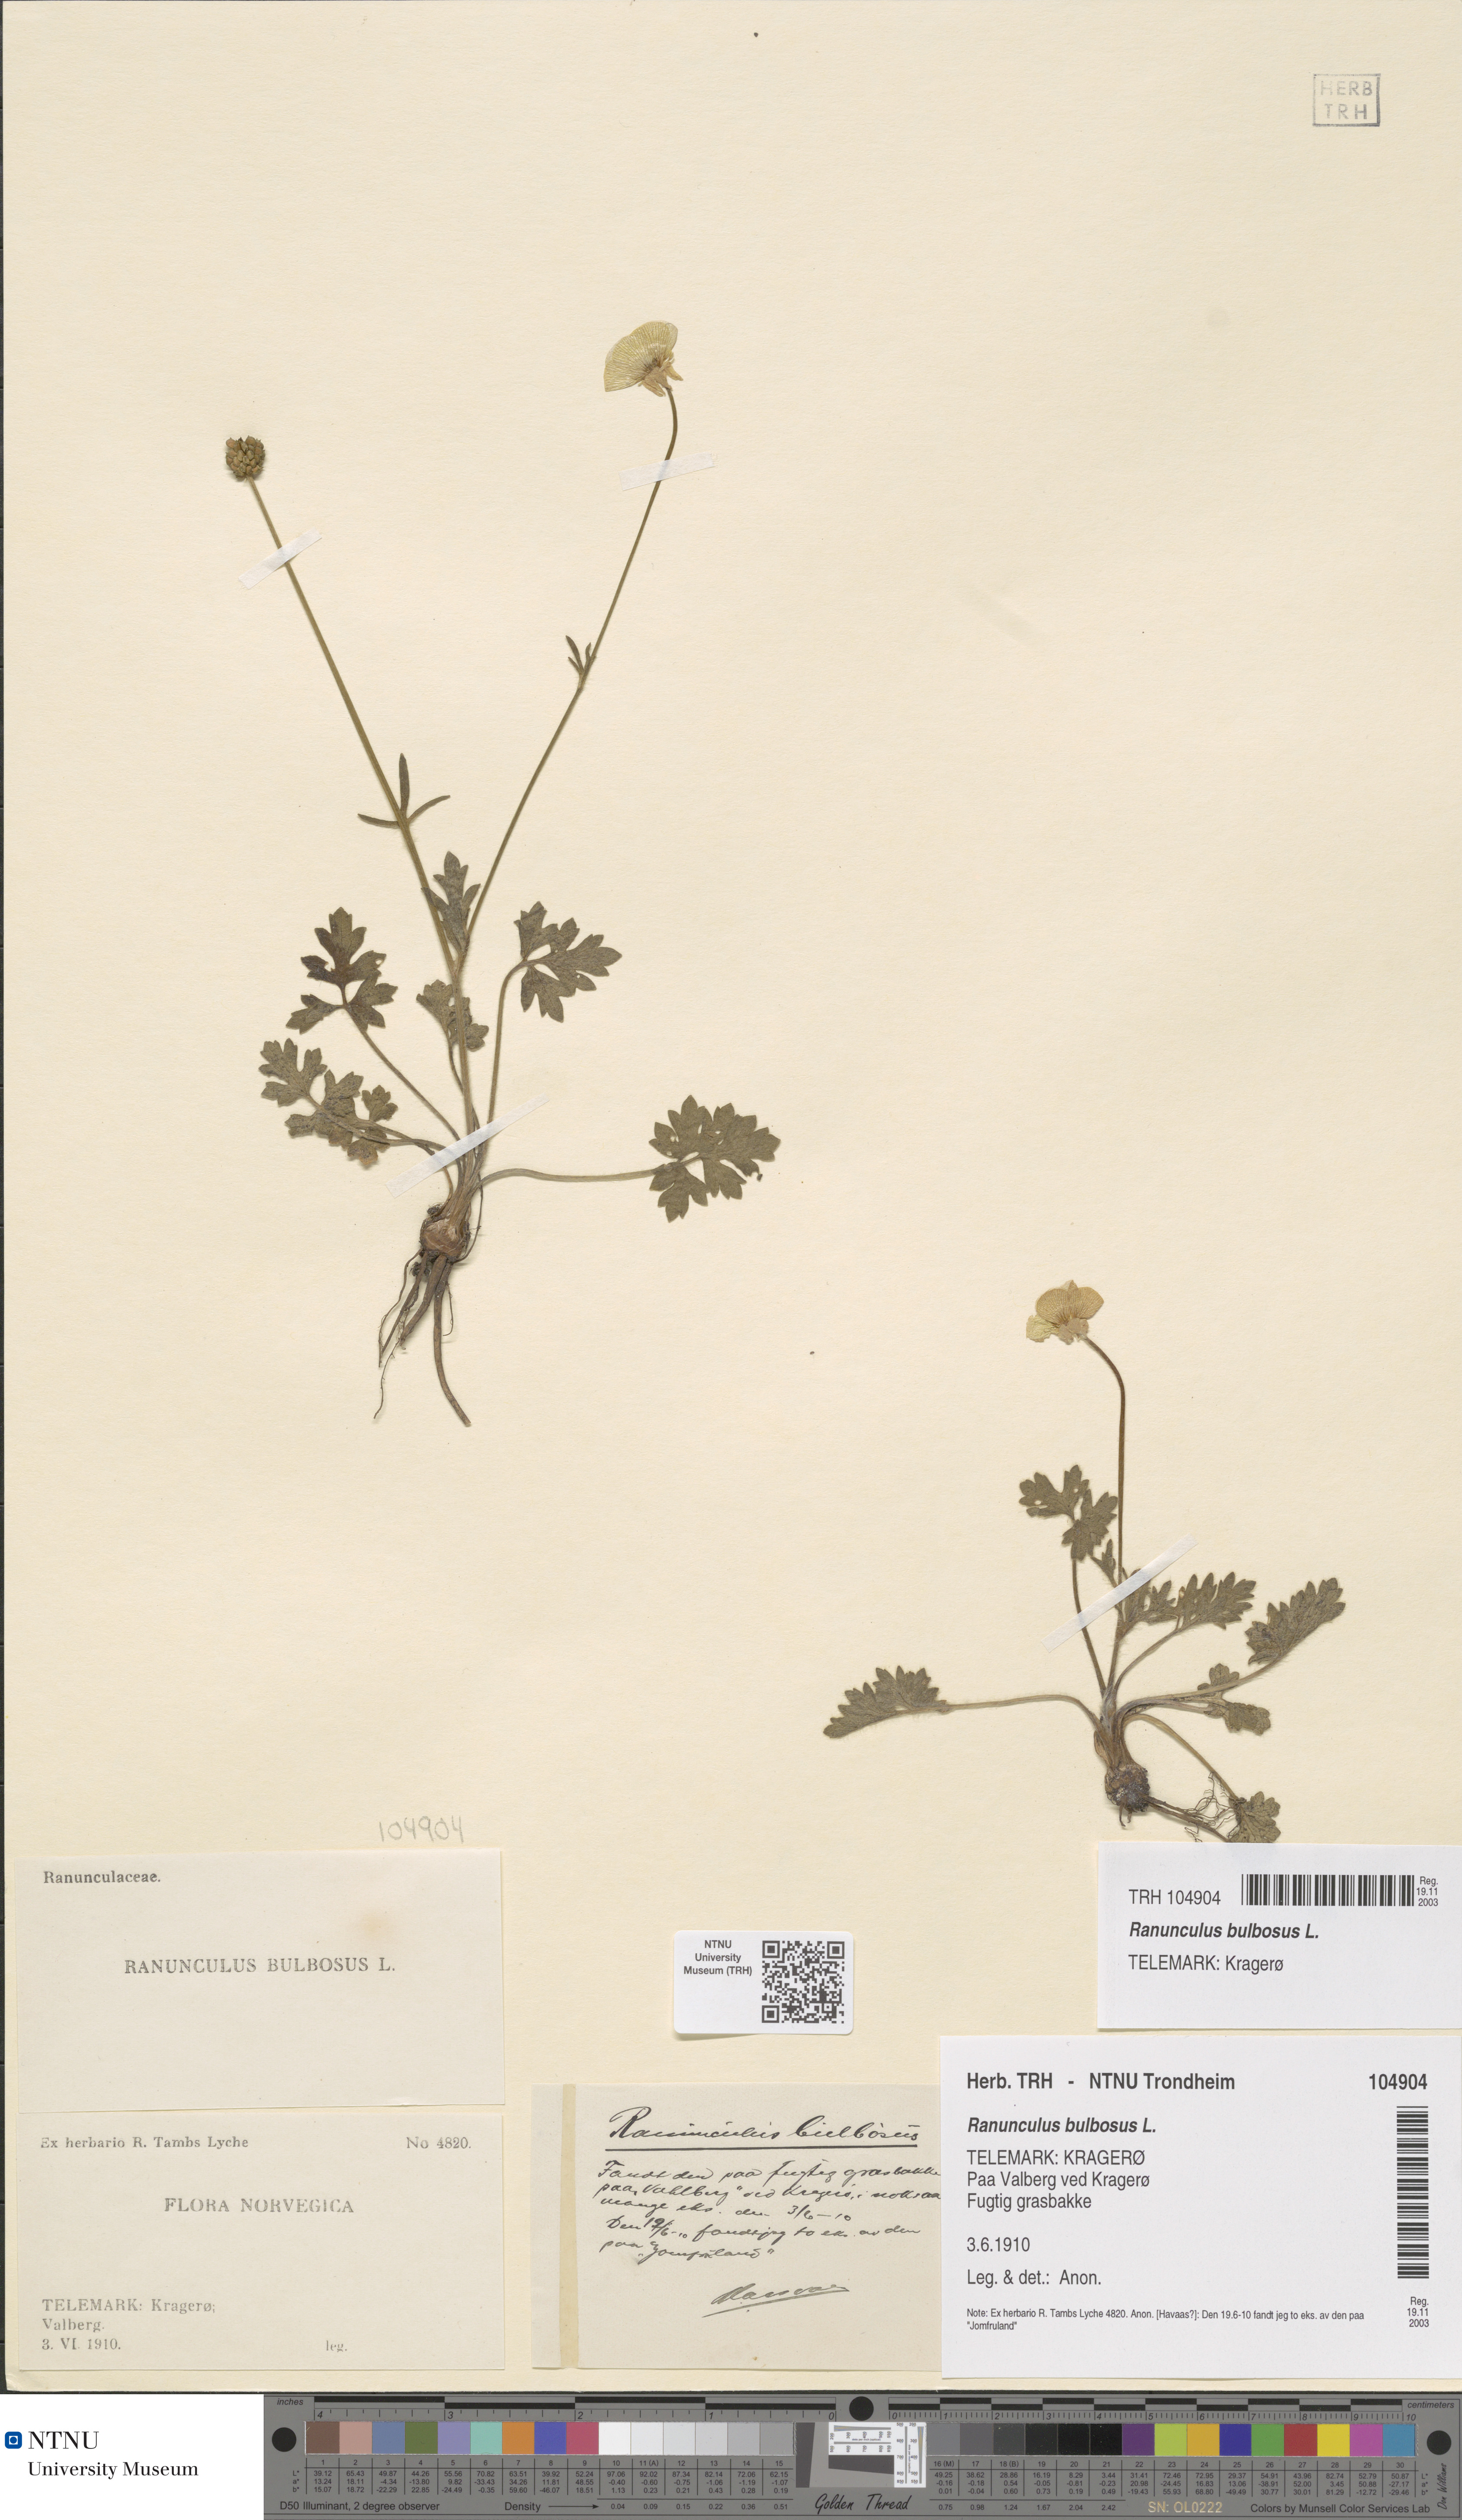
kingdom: Plantae
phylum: Tracheophyta
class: Magnoliopsida
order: Ranunculales
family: Ranunculaceae
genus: Ranunculus
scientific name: Ranunculus bulbosus
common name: Bulbous buttercup
